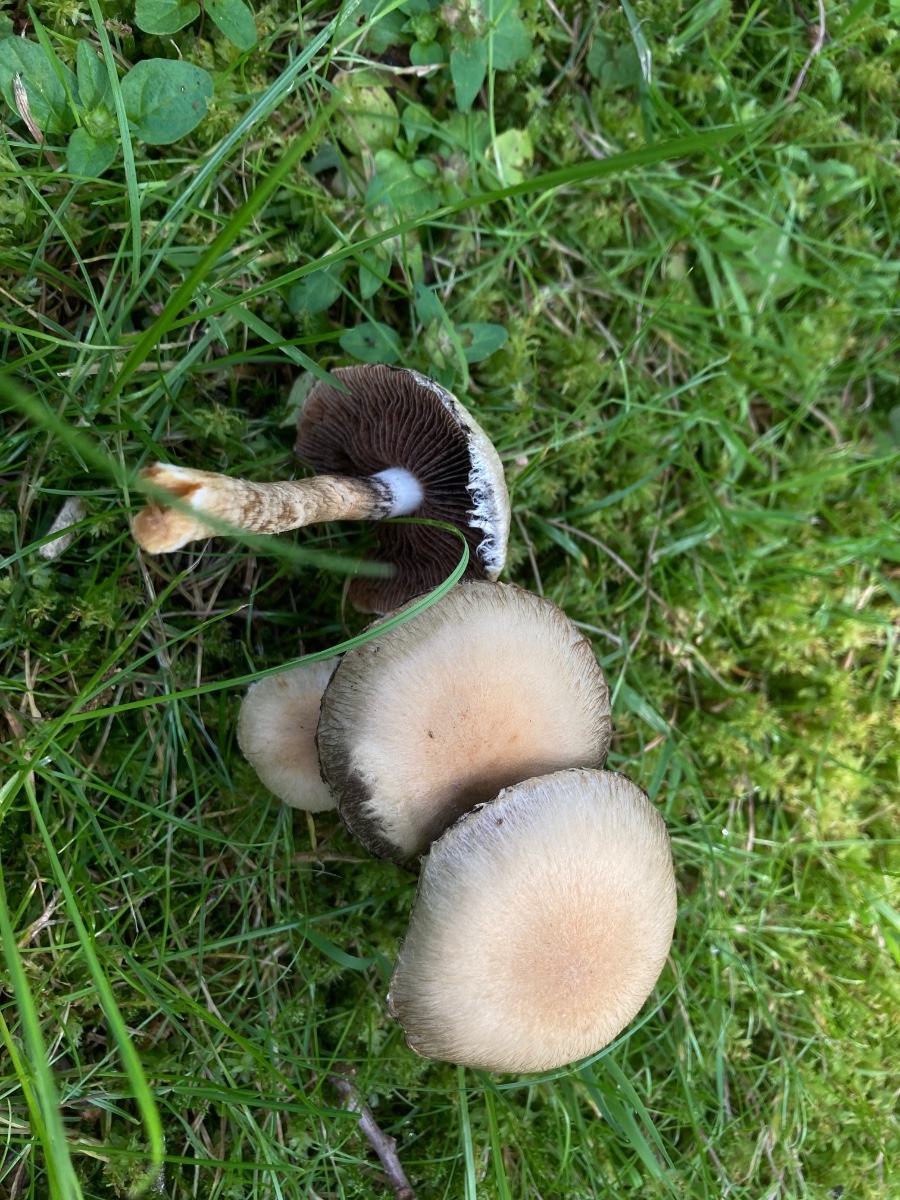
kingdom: Fungi
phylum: Basidiomycota
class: Agaricomycetes
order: Agaricales
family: Psathyrellaceae
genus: Lacrymaria
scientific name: Lacrymaria lacrymabunda
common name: grædende mørkhat
